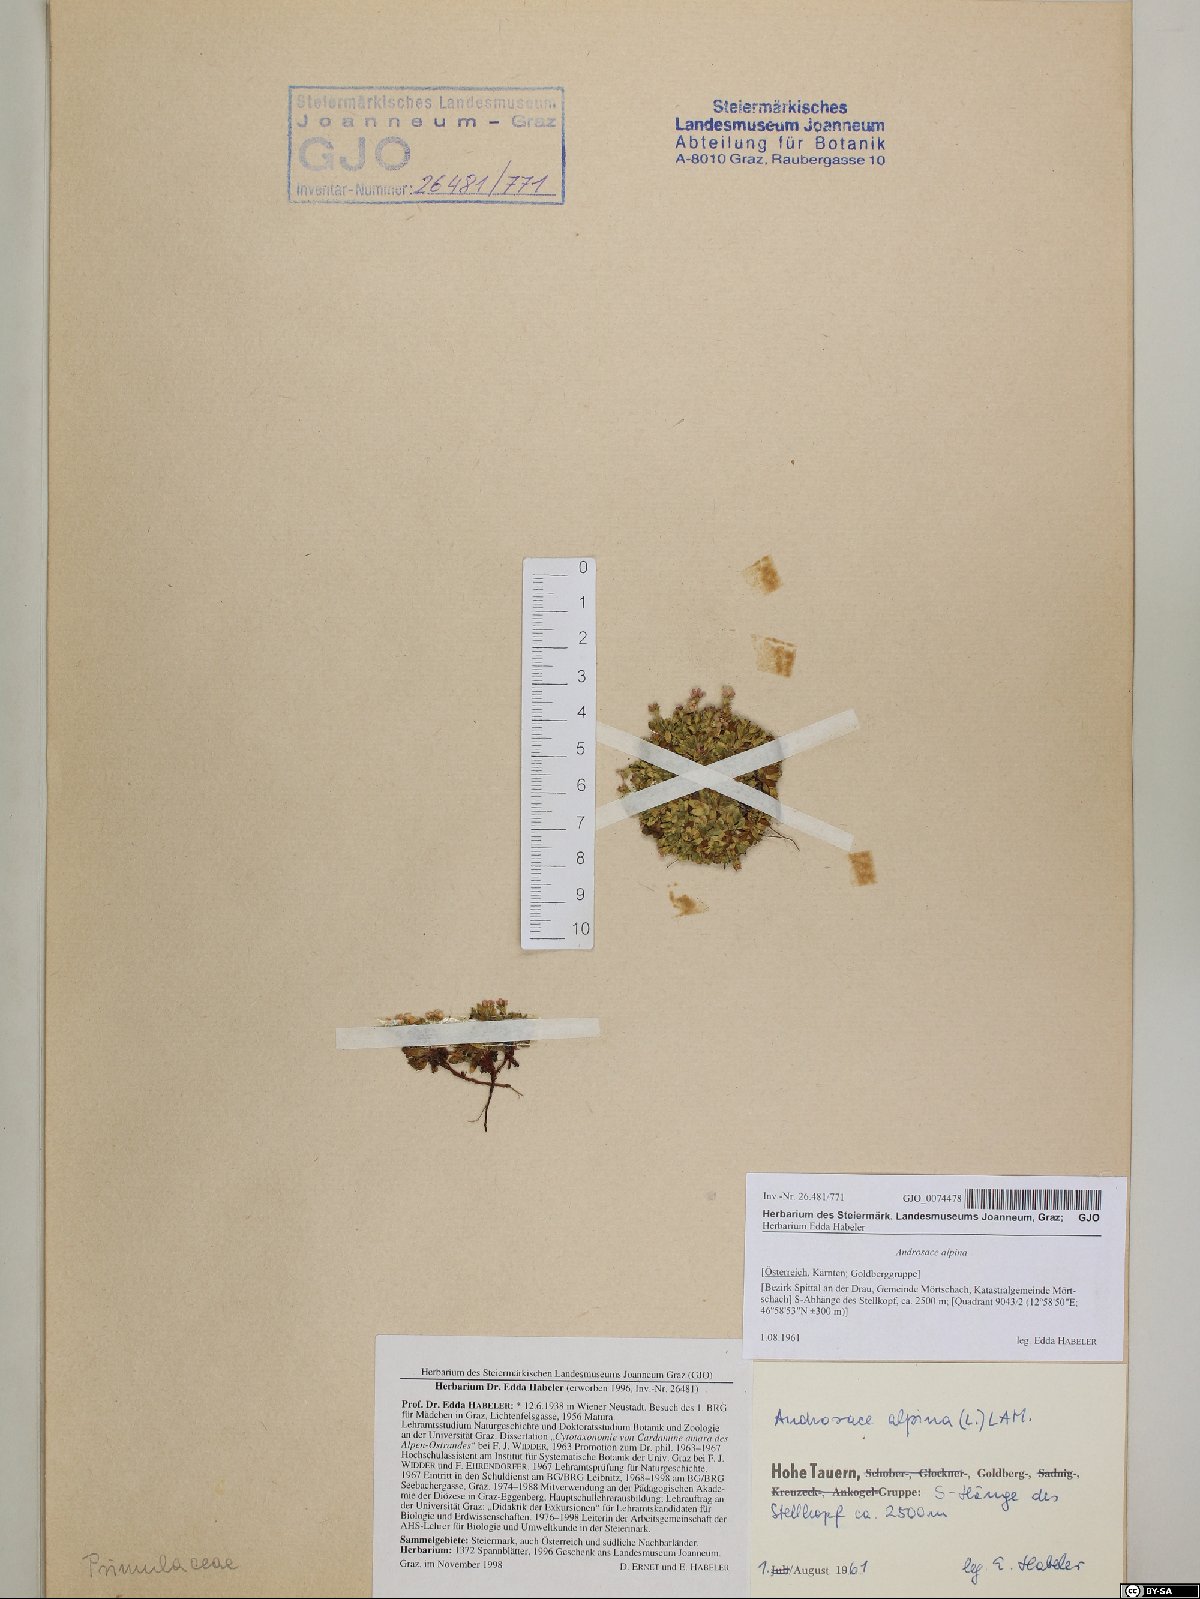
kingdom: Plantae
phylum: Tracheophyta
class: Magnoliopsida
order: Ericales
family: Primulaceae
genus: Androsace
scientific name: Androsace alpina
